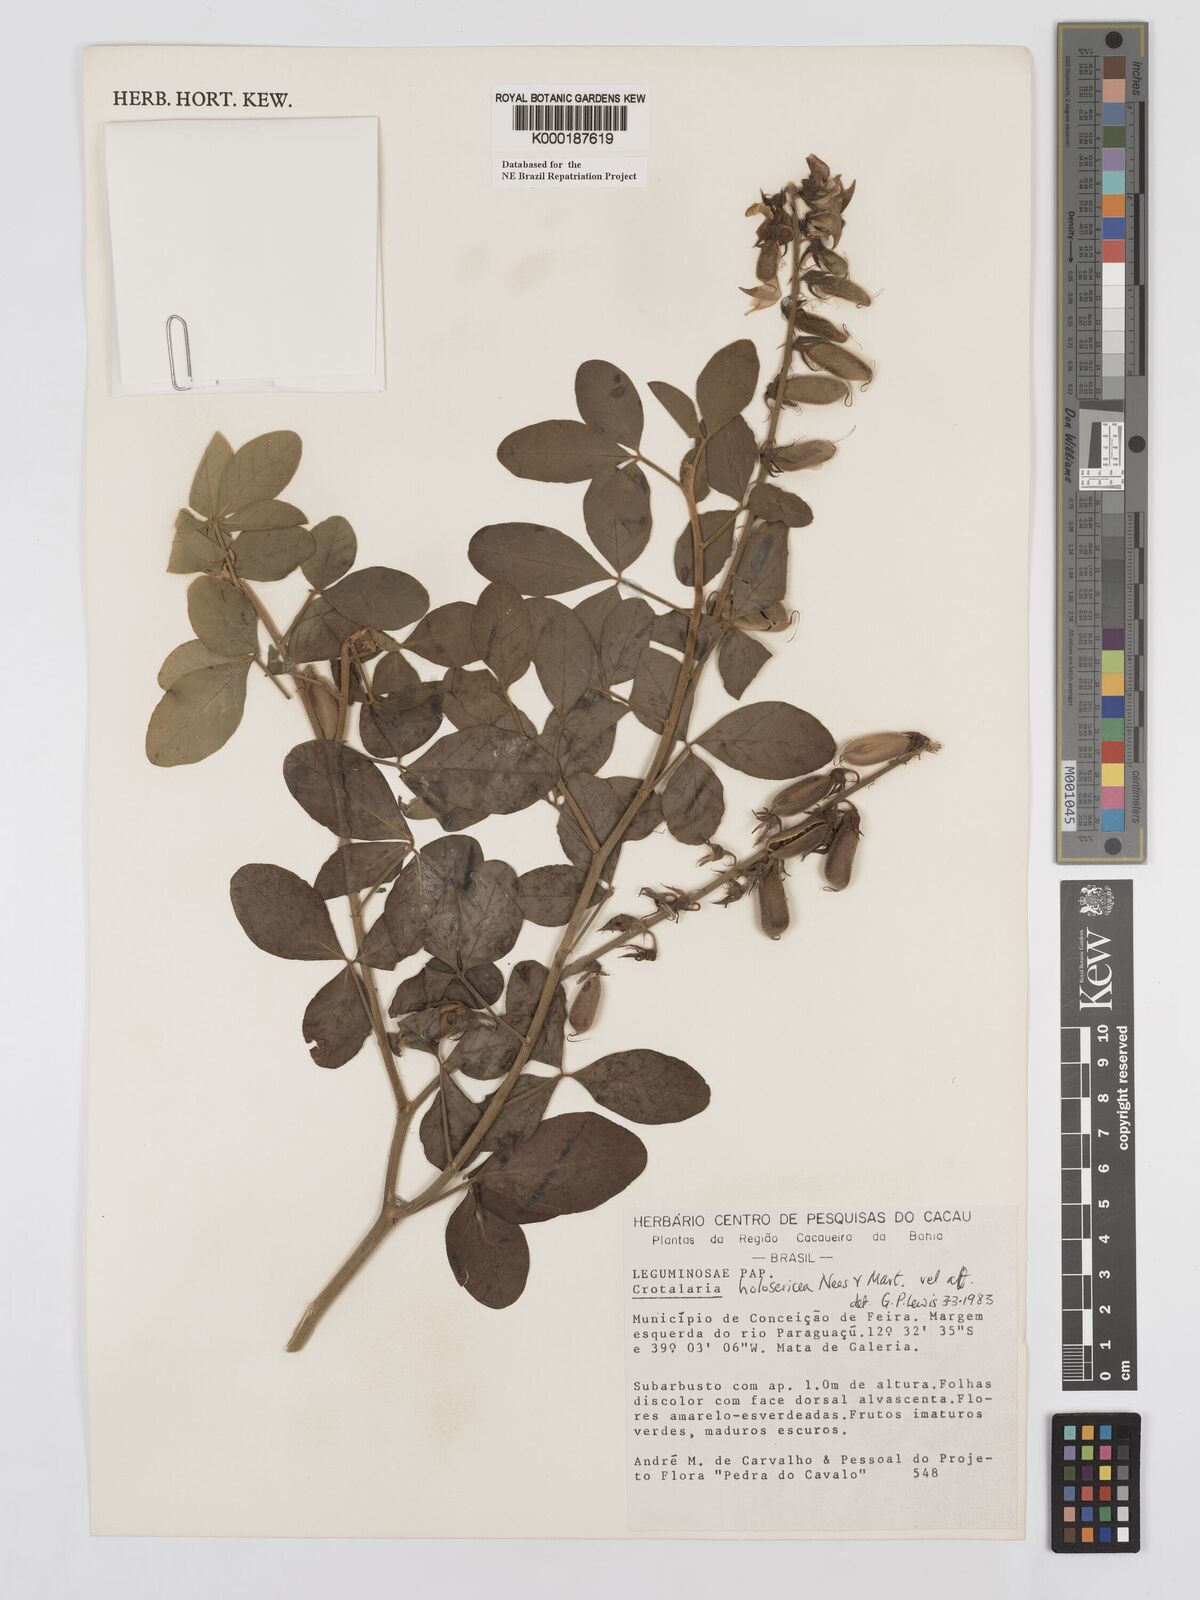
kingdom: Plantae
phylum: Tracheophyta
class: Magnoliopsida
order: Fabales
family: Fabaceae
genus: Crotalaria
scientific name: Crotalaria holosericea
